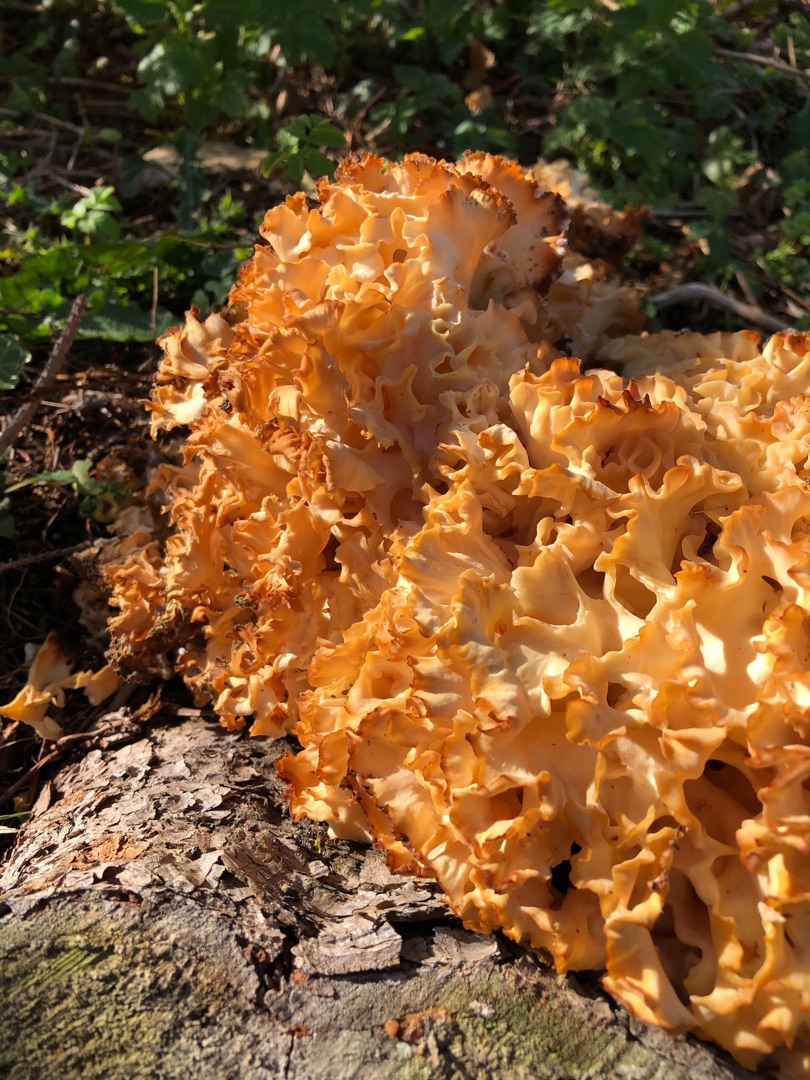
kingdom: Fungi
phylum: Basidiomycota
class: Agaricomycetes
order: Polyporales
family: Sparassidaceae
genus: Sparassis
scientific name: Sparassis crispa
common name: Kruset blomkålssvamp
